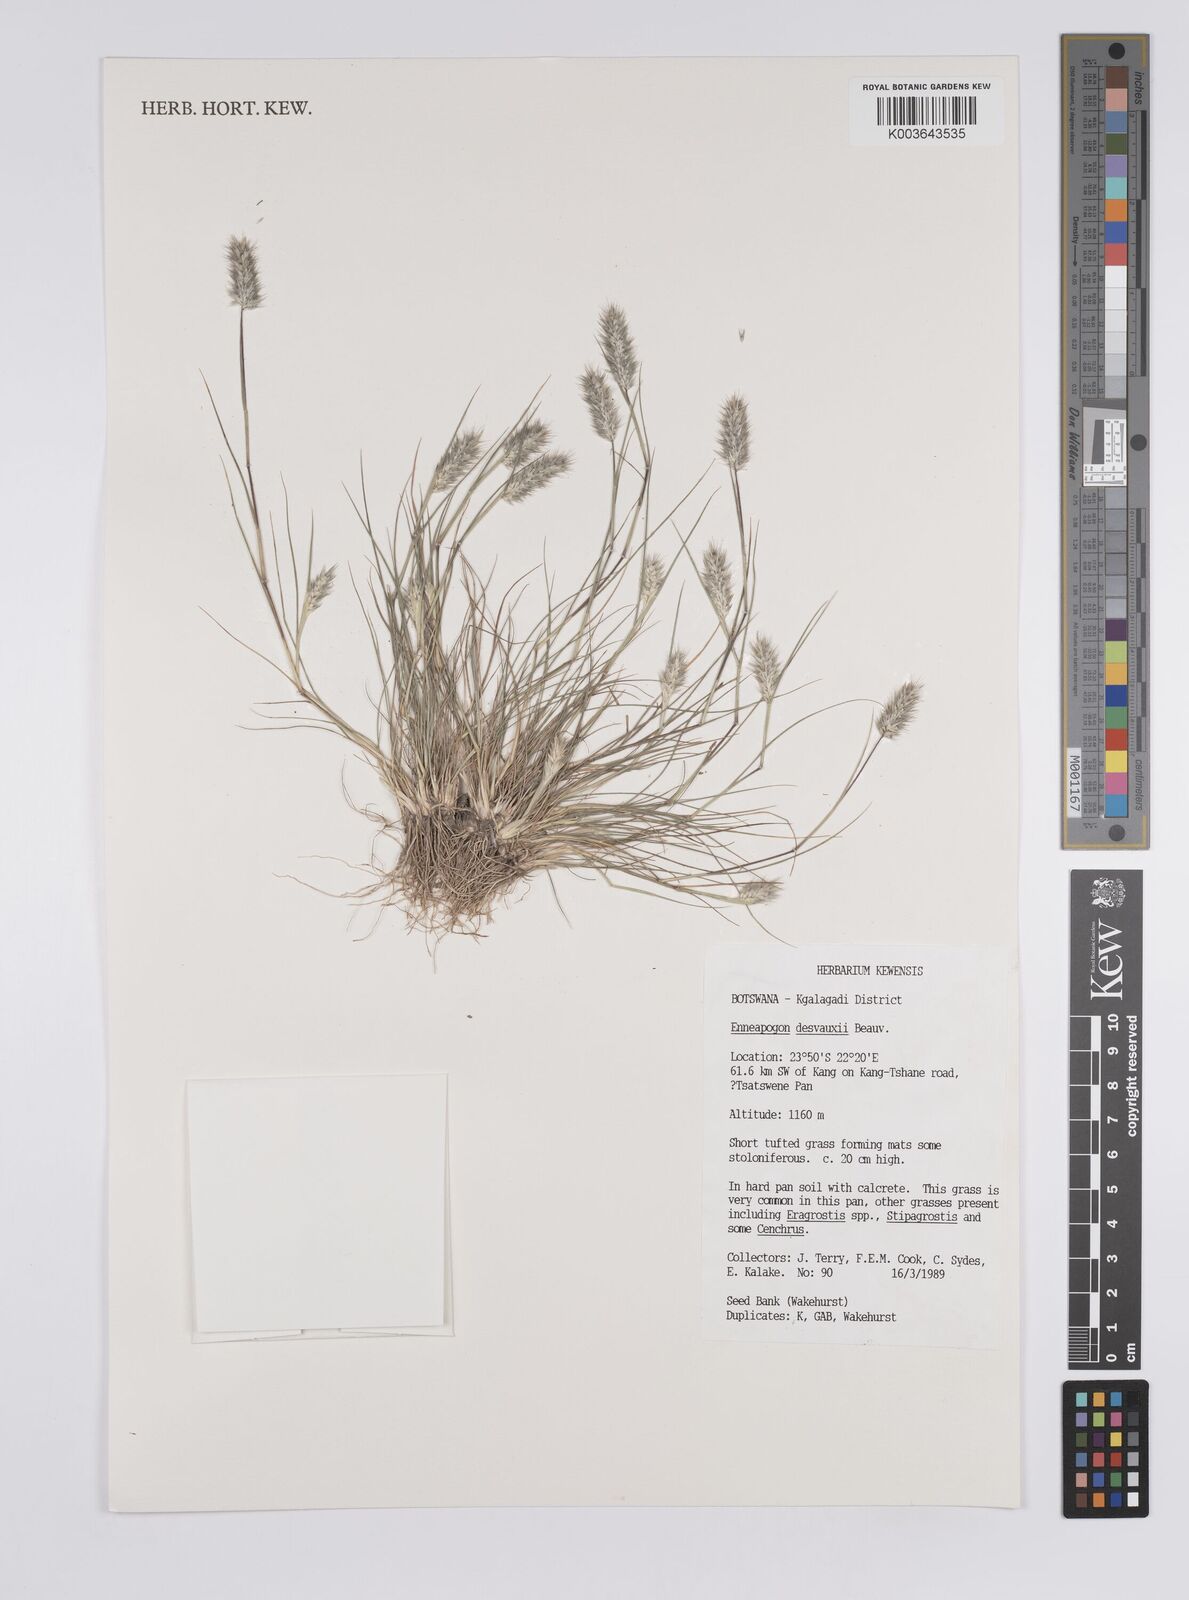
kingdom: Plantae
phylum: Tracheophyta
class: Liliopsida
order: Poales
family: Poaceae
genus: Enneapogon
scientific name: Enneapogon desvauxii
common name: Feather pappus grass
